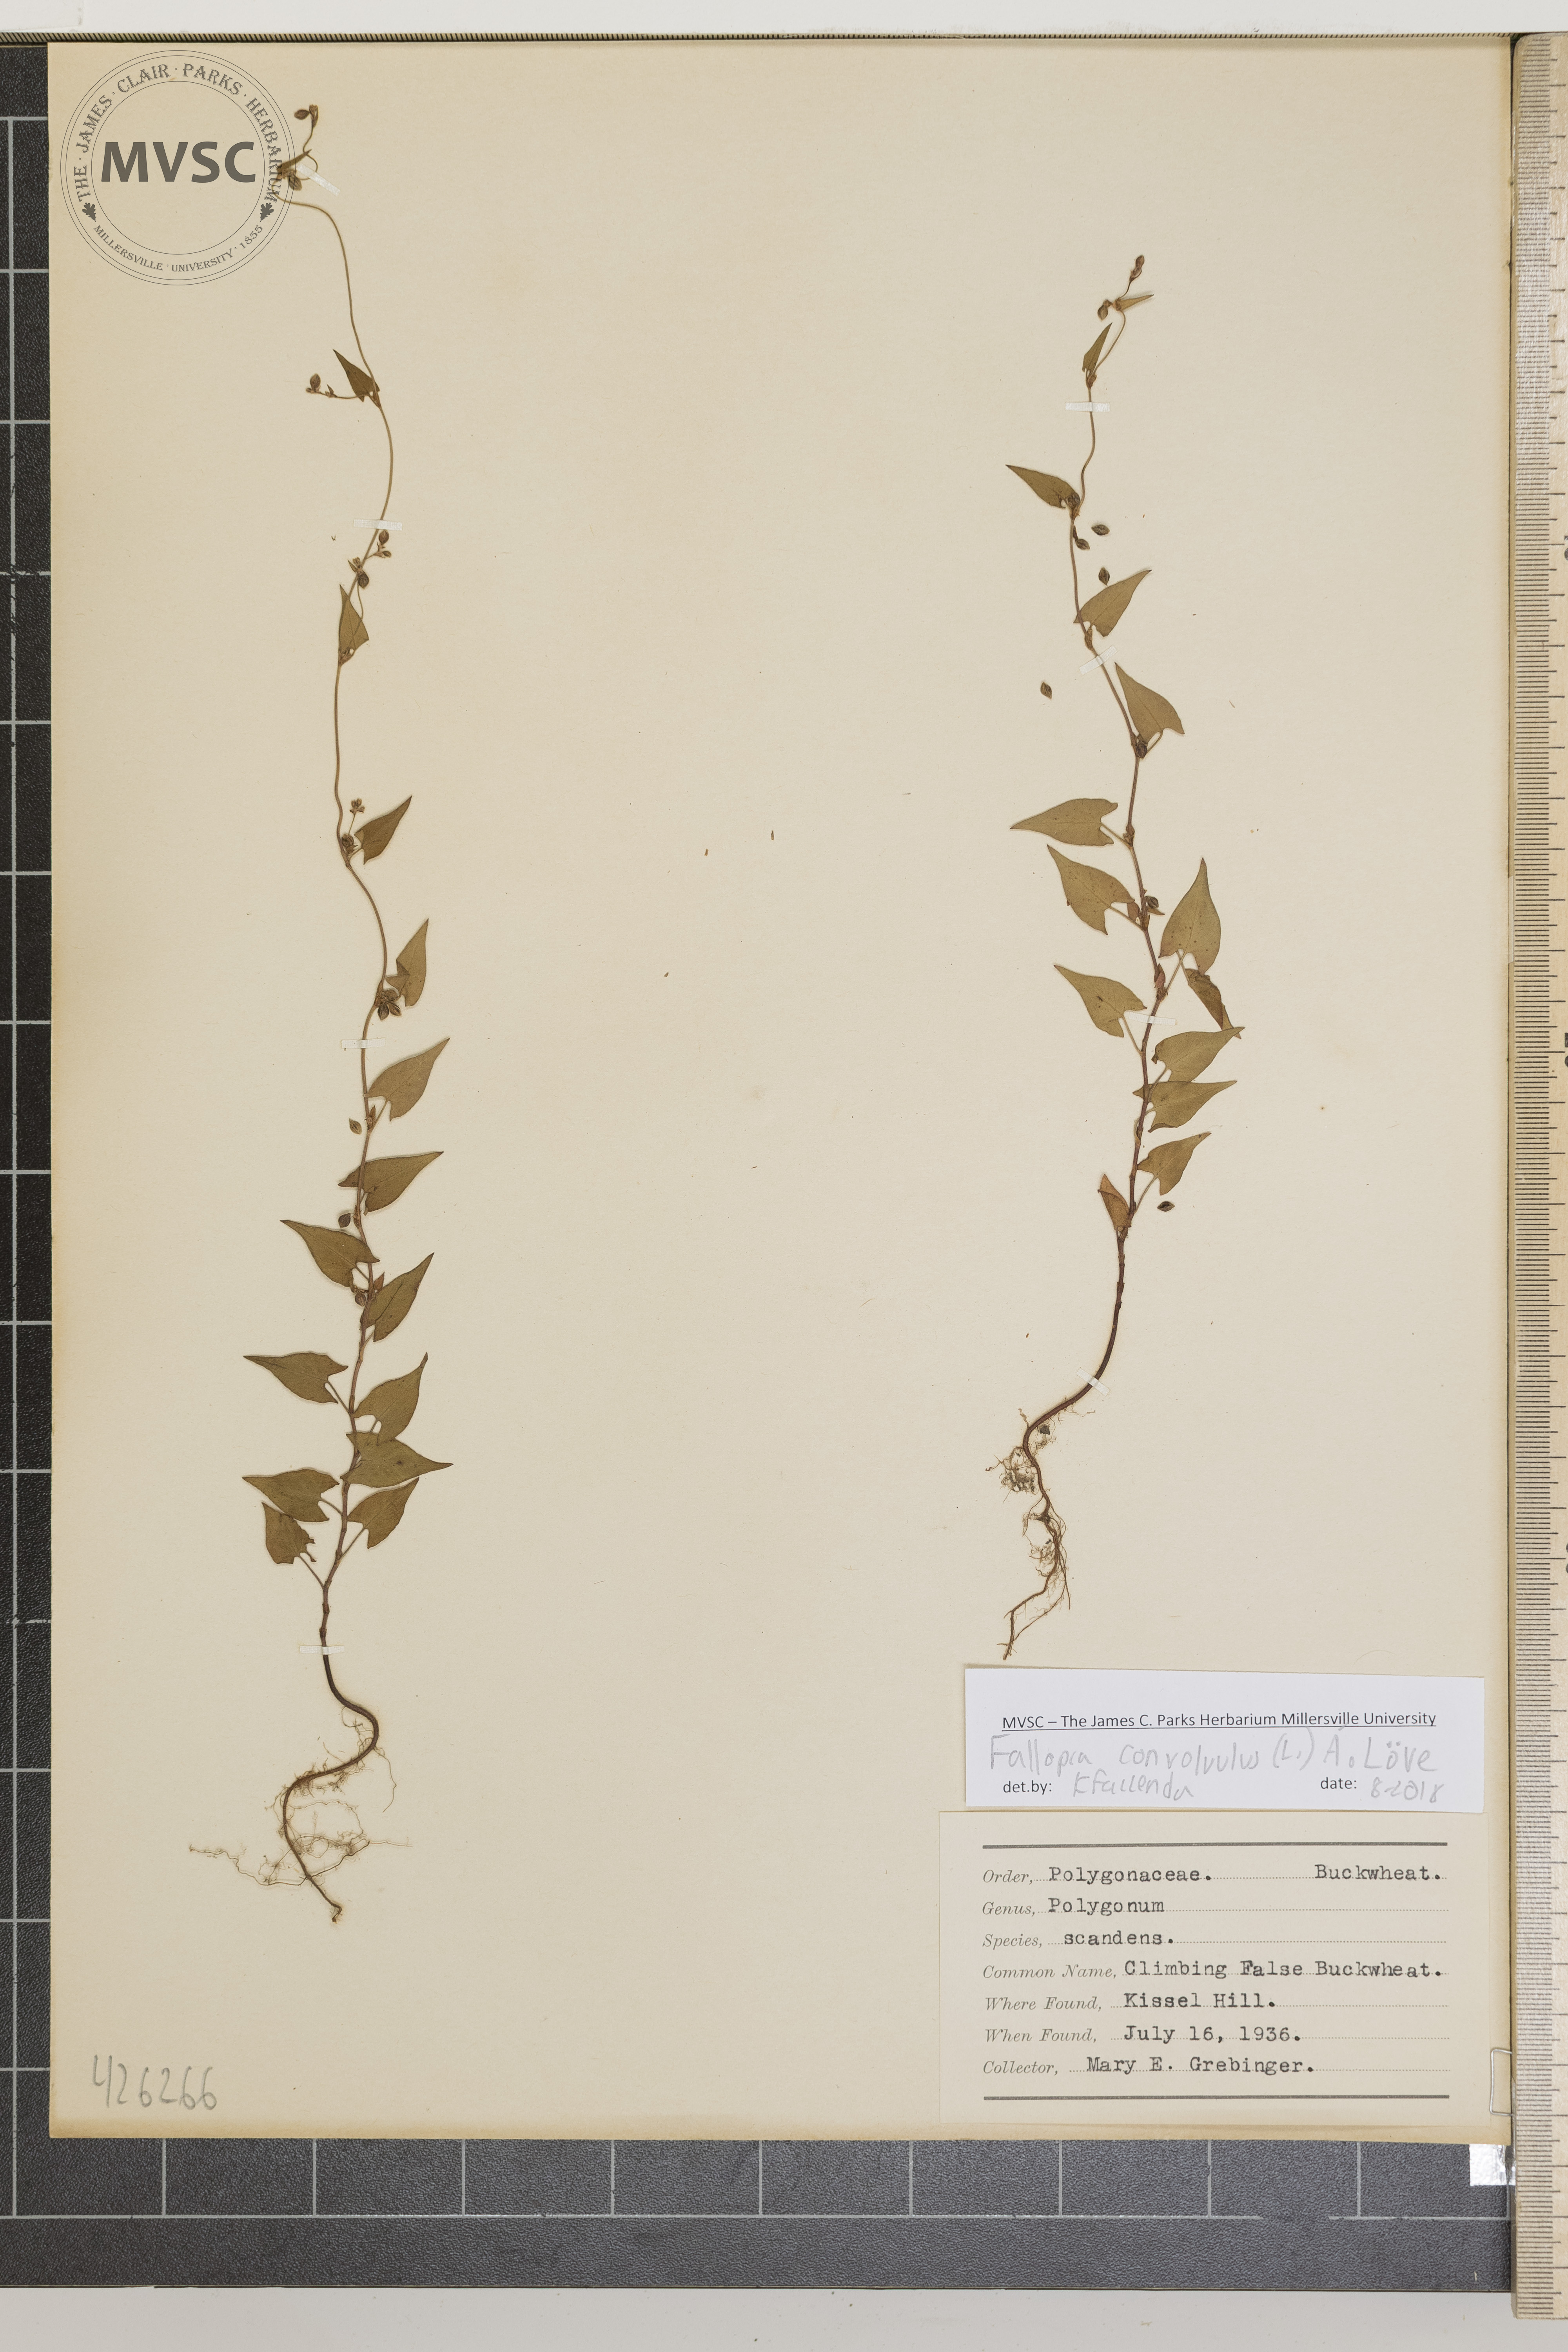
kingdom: Plantae
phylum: Tracheophyta
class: Magnoliopsida
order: Caryophyllales
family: Polygonaceae
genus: Fallopia
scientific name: Fallopia convolvulus
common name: Climbing false buckwheat
